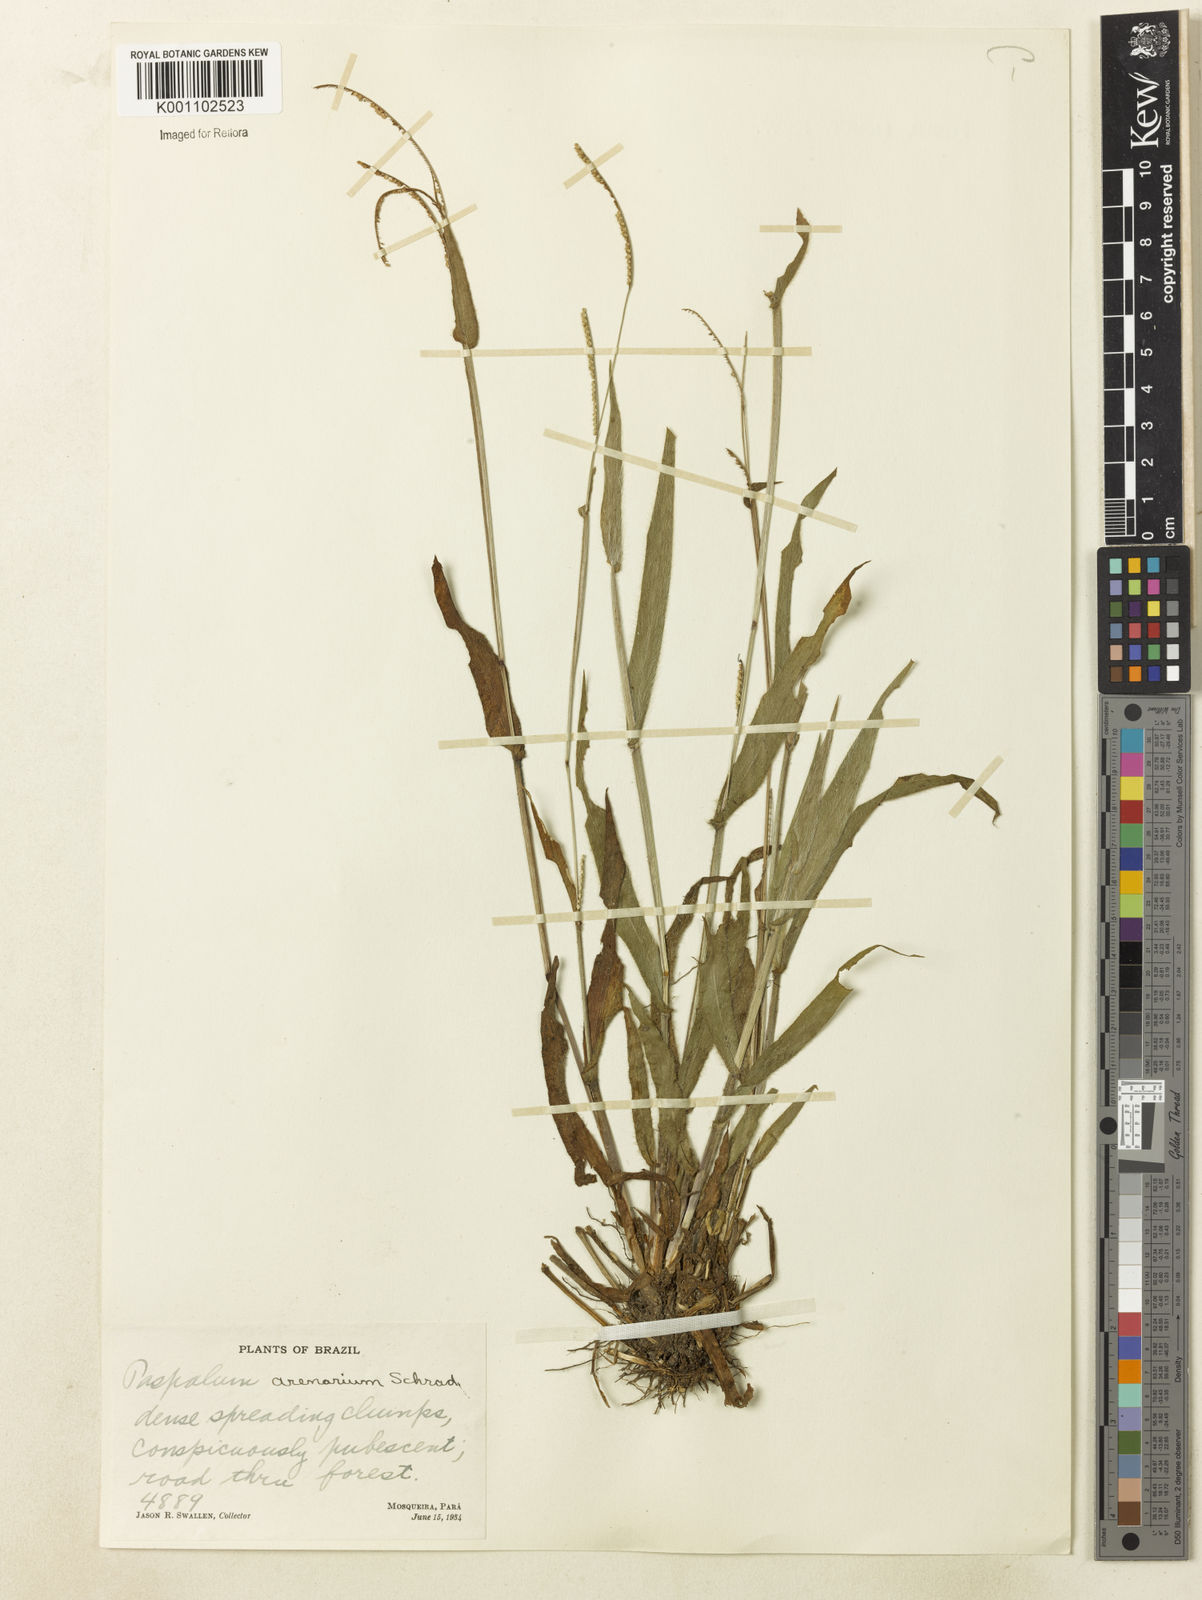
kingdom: Plantae
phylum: Tracheophyta
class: Liliopsida
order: Poales
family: Poaceae
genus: Paspalum
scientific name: Paspalum arenarium
